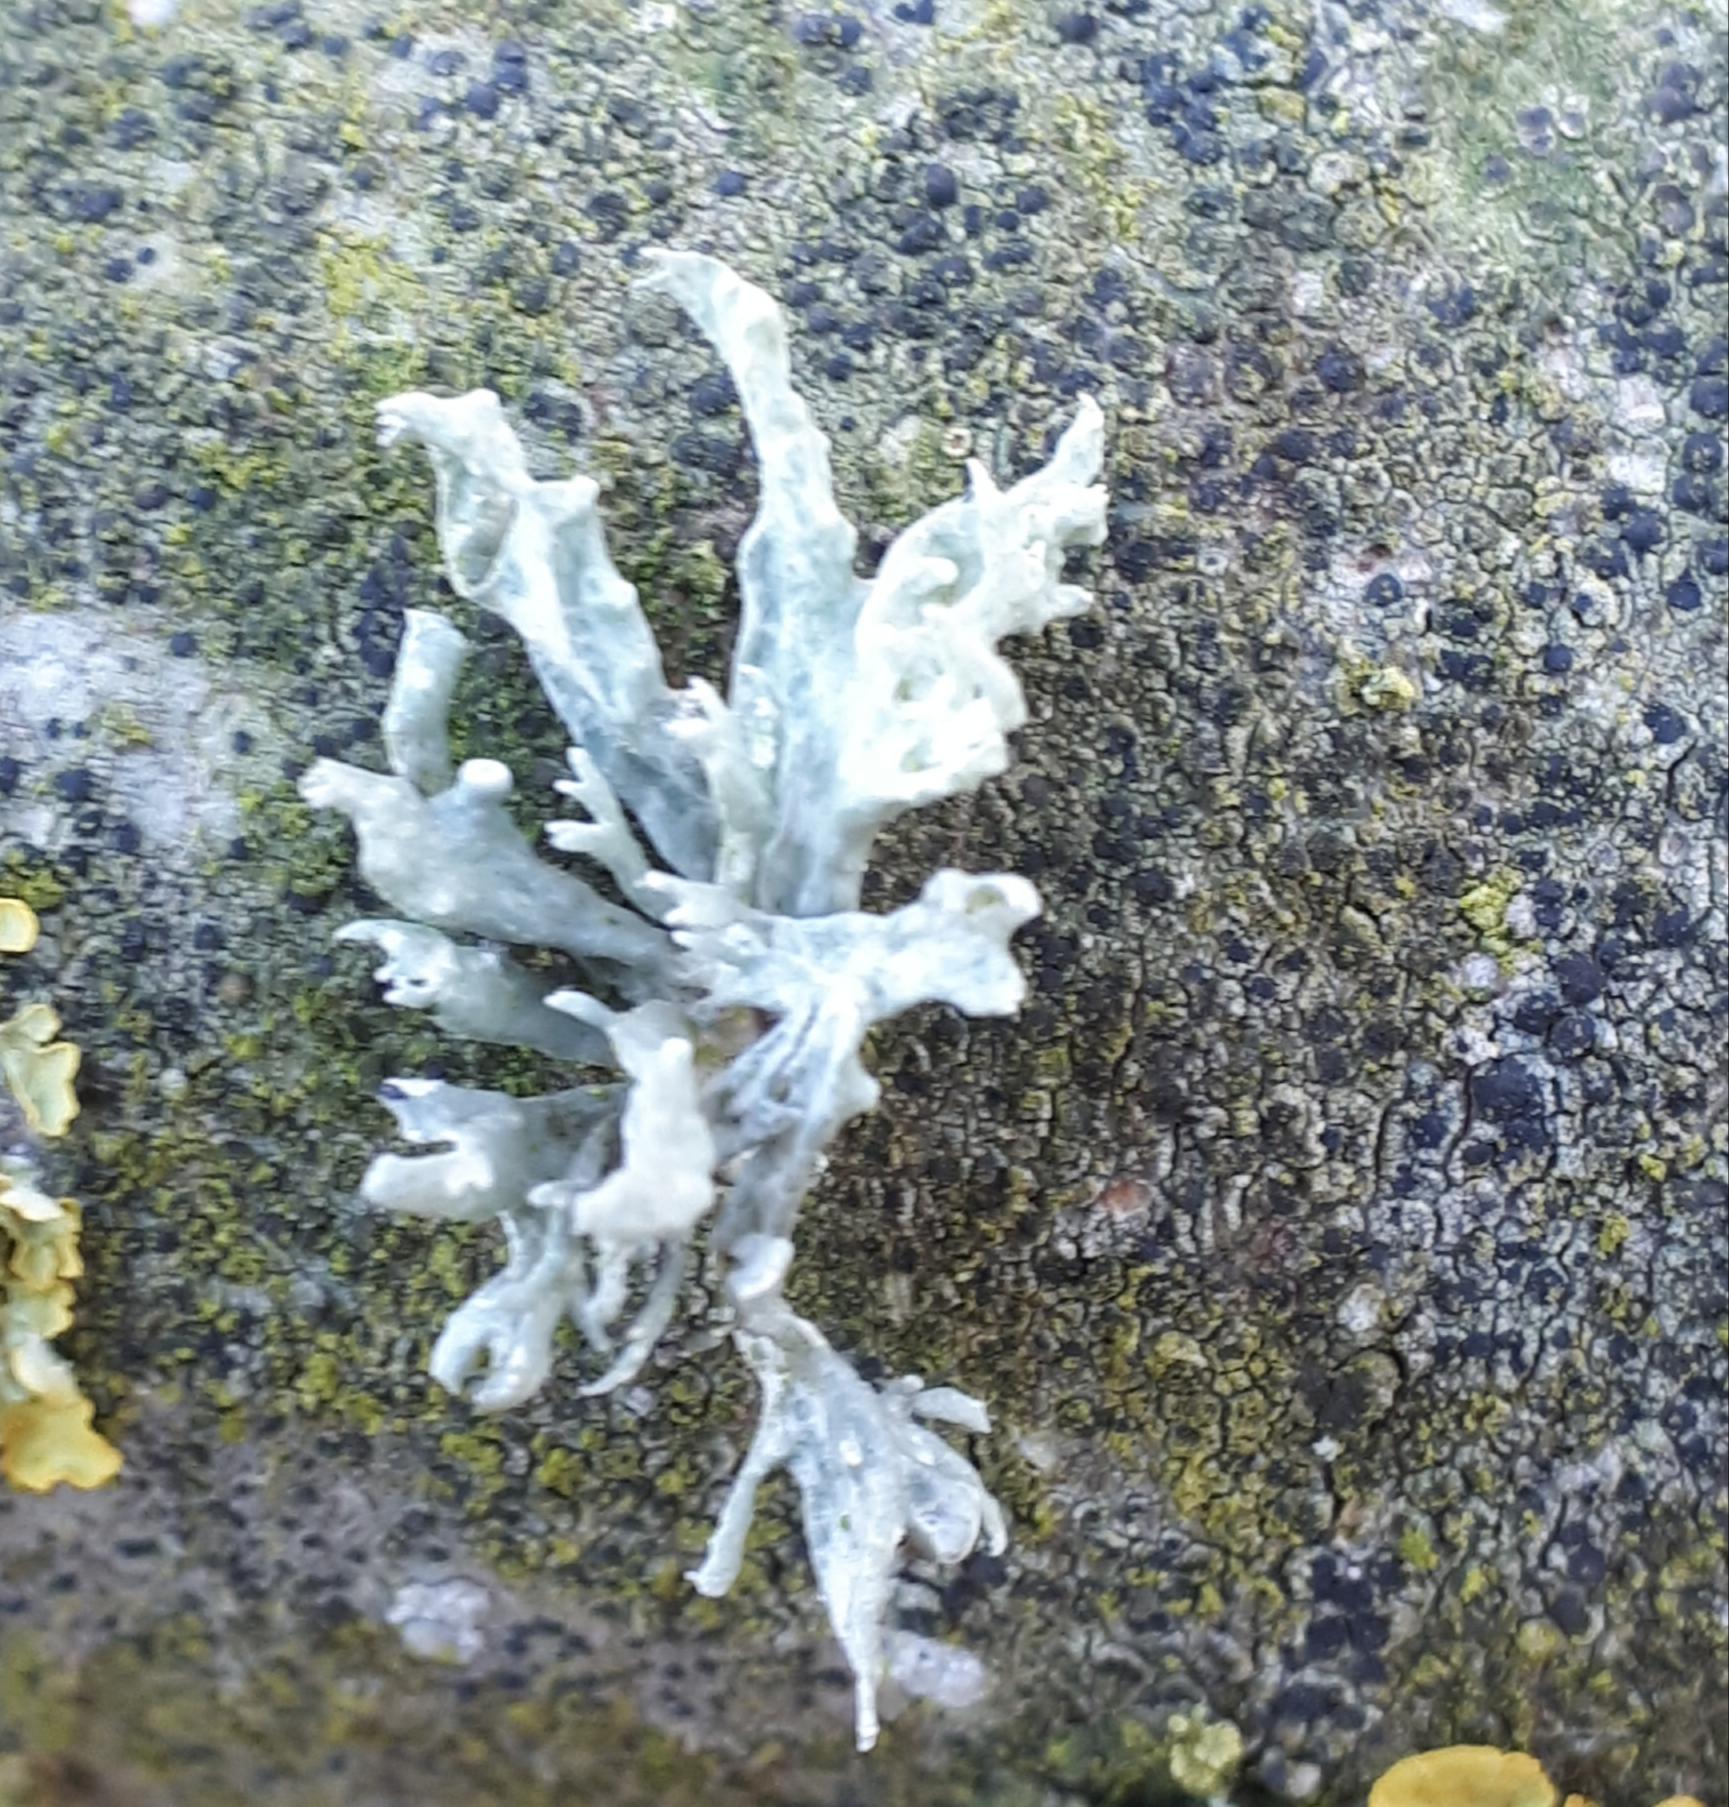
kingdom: Fungi
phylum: Ascomycota
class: Lecanoromycetes
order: Lecanorales
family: Ramalinaceae
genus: Ramalina
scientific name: Ramalina fastigiata
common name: tue-grenlav
